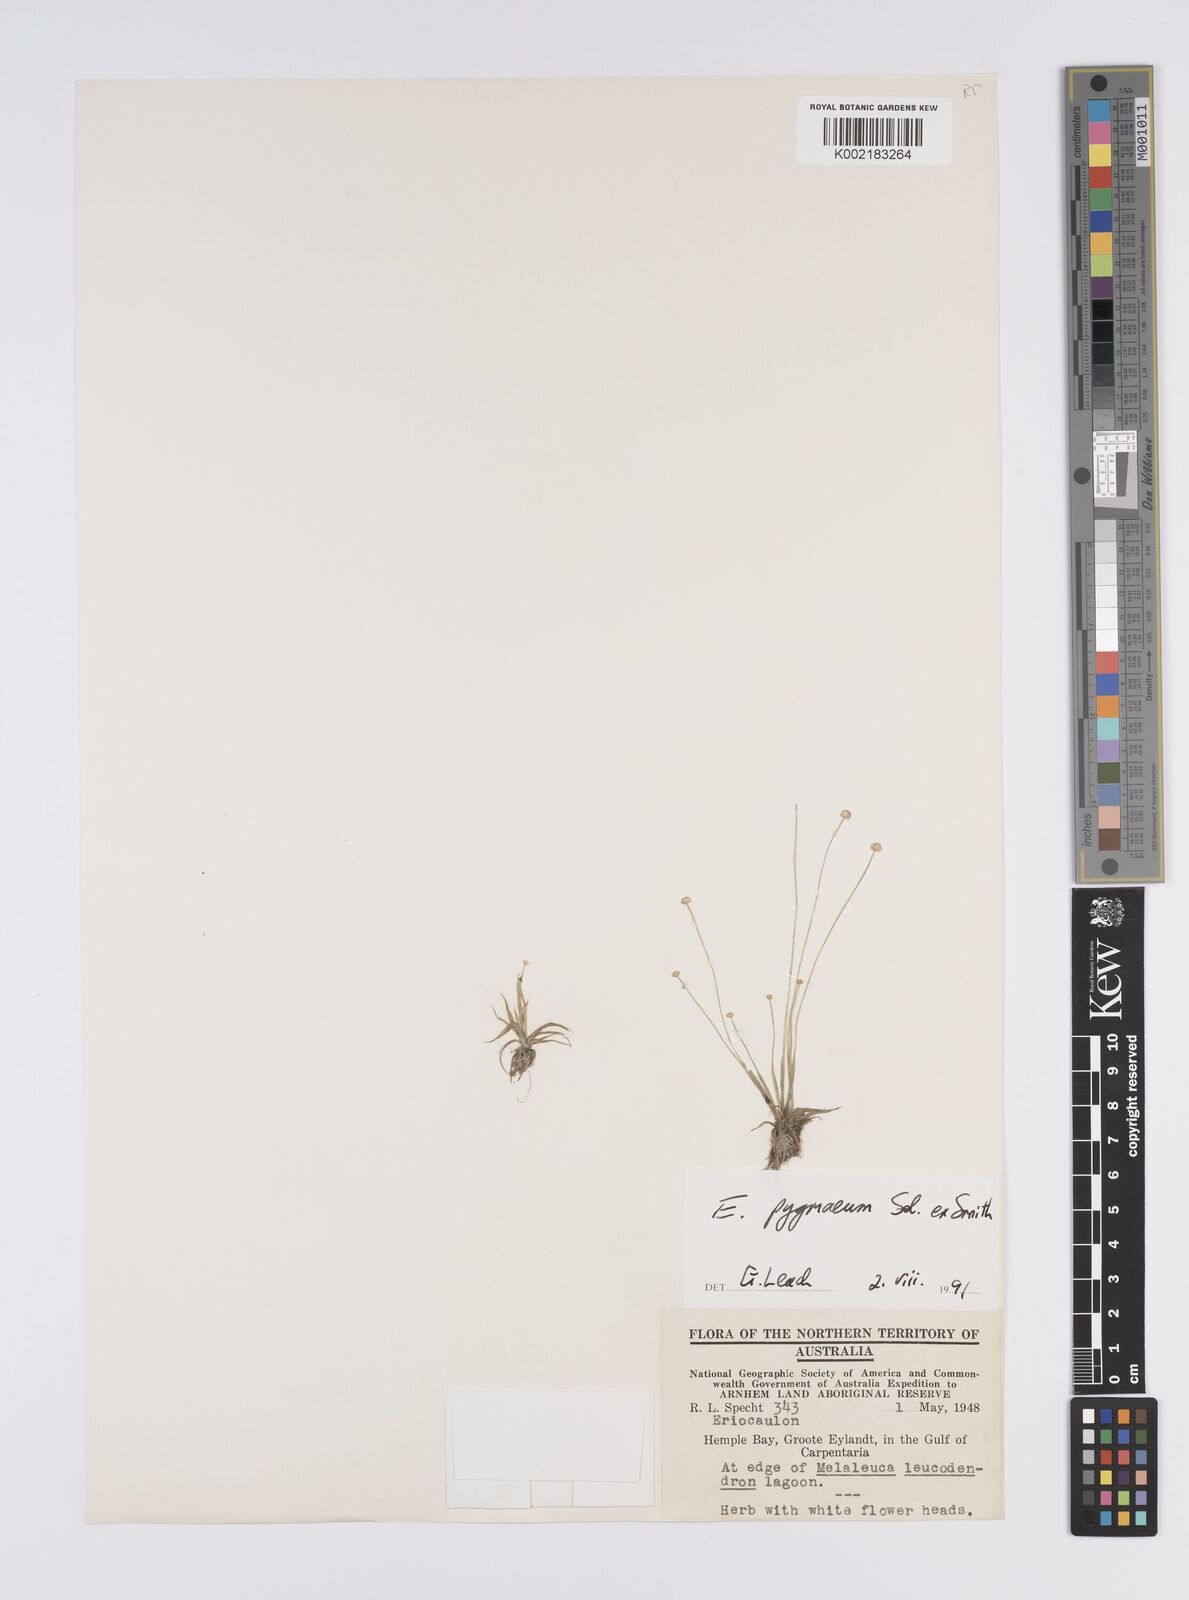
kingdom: Plantae
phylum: Tracheophyta
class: Liliopsida
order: Poales
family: Eriocaulaceae
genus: Paepalanthus
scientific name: Paepalanthus bifidus
